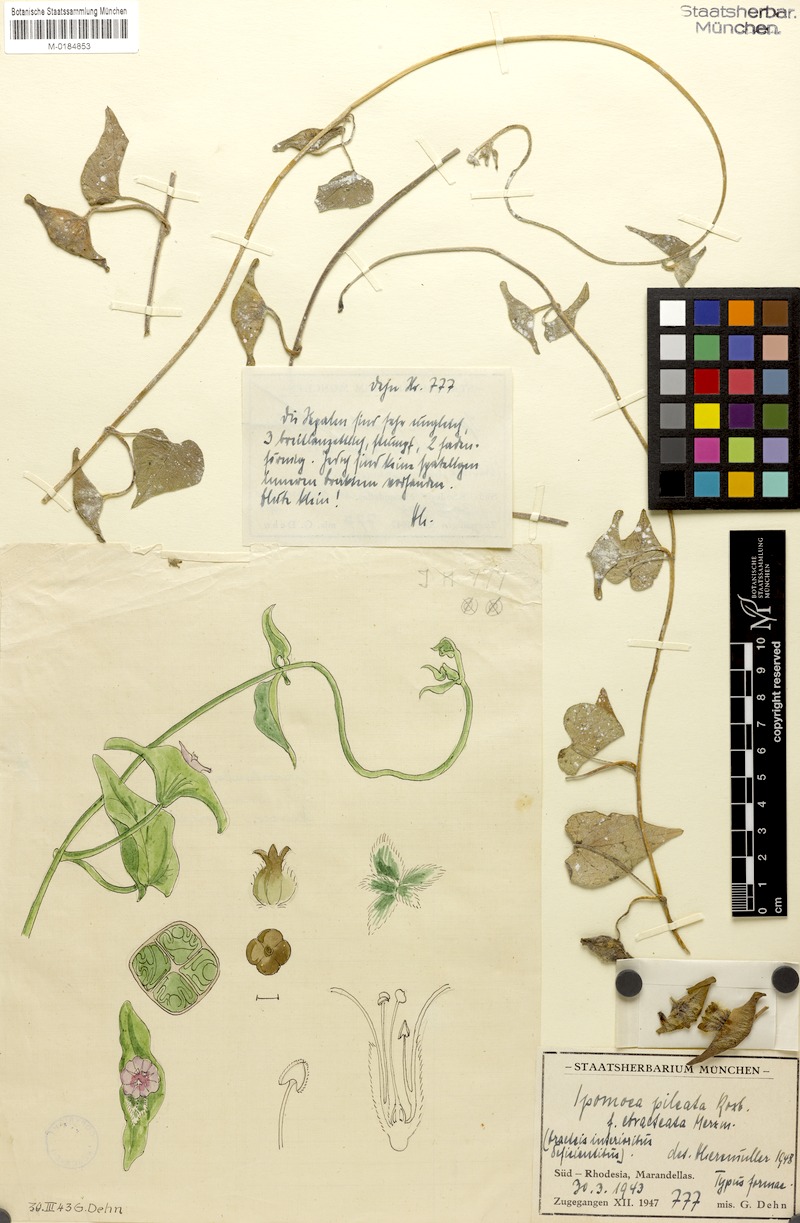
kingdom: Plantae
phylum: Tracheophyta
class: Magnoliopsida
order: Solanales
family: Convolvulaceae
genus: Ipomoea
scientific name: Ipomoea involucrata
